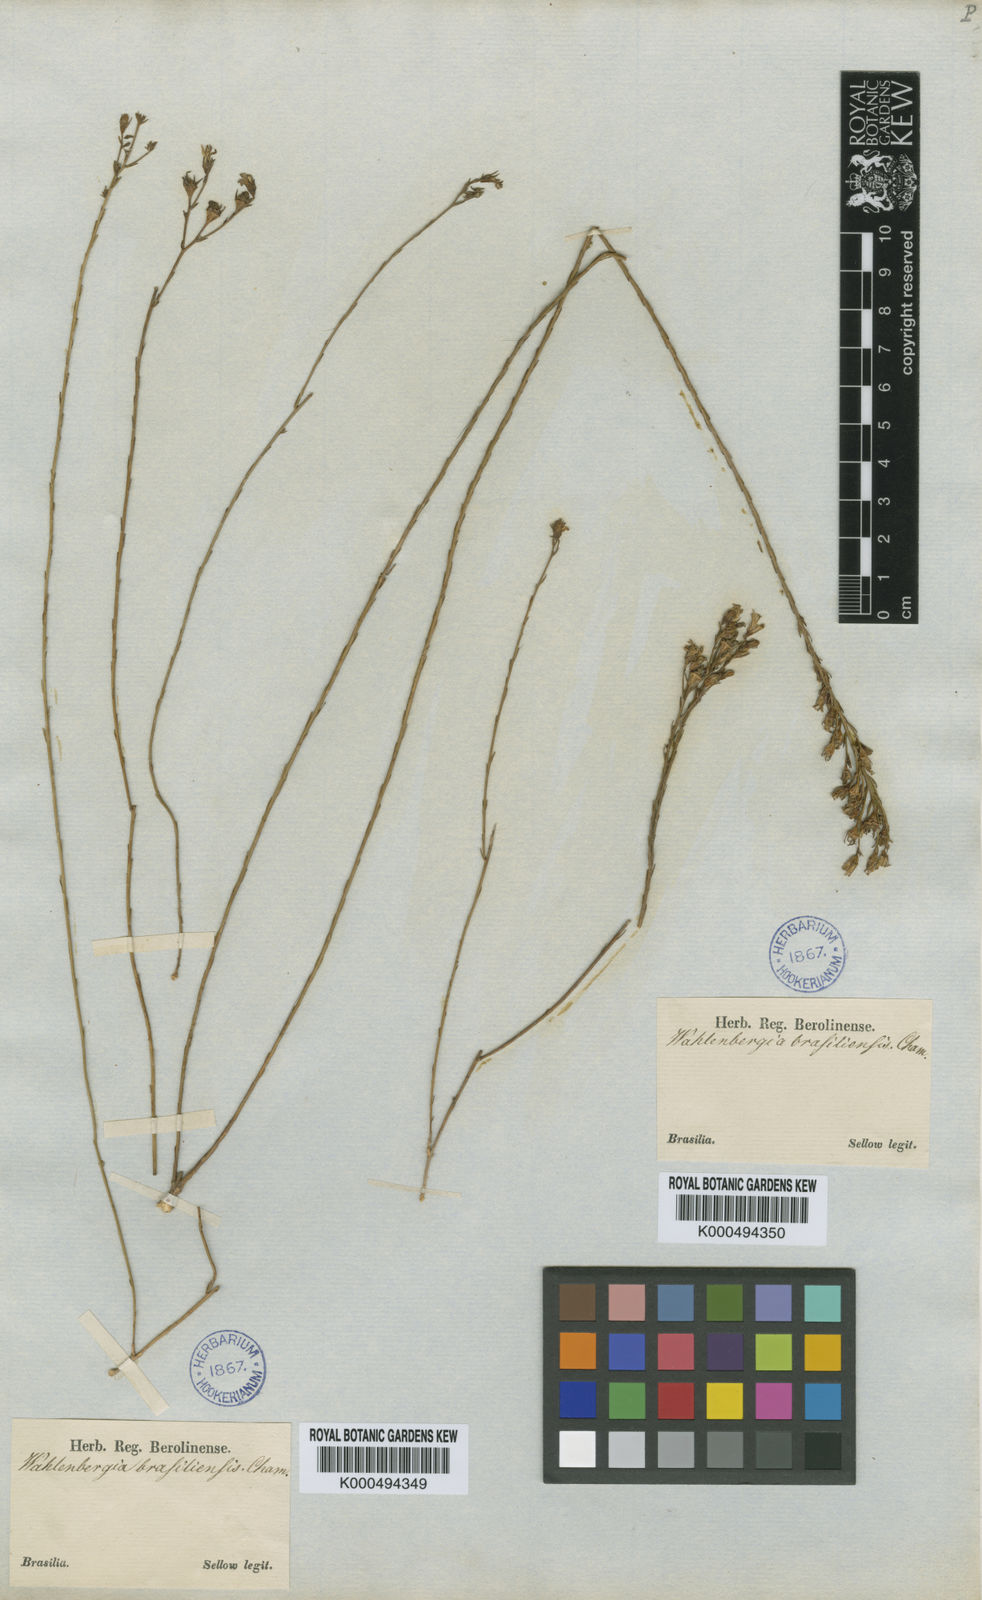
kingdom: Plantae
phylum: Tracheophyta
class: Magnoliopsida
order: Asterales
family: Campanulaceae
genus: Wahlenbergia
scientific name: Wahlenbergia brasiliensis
